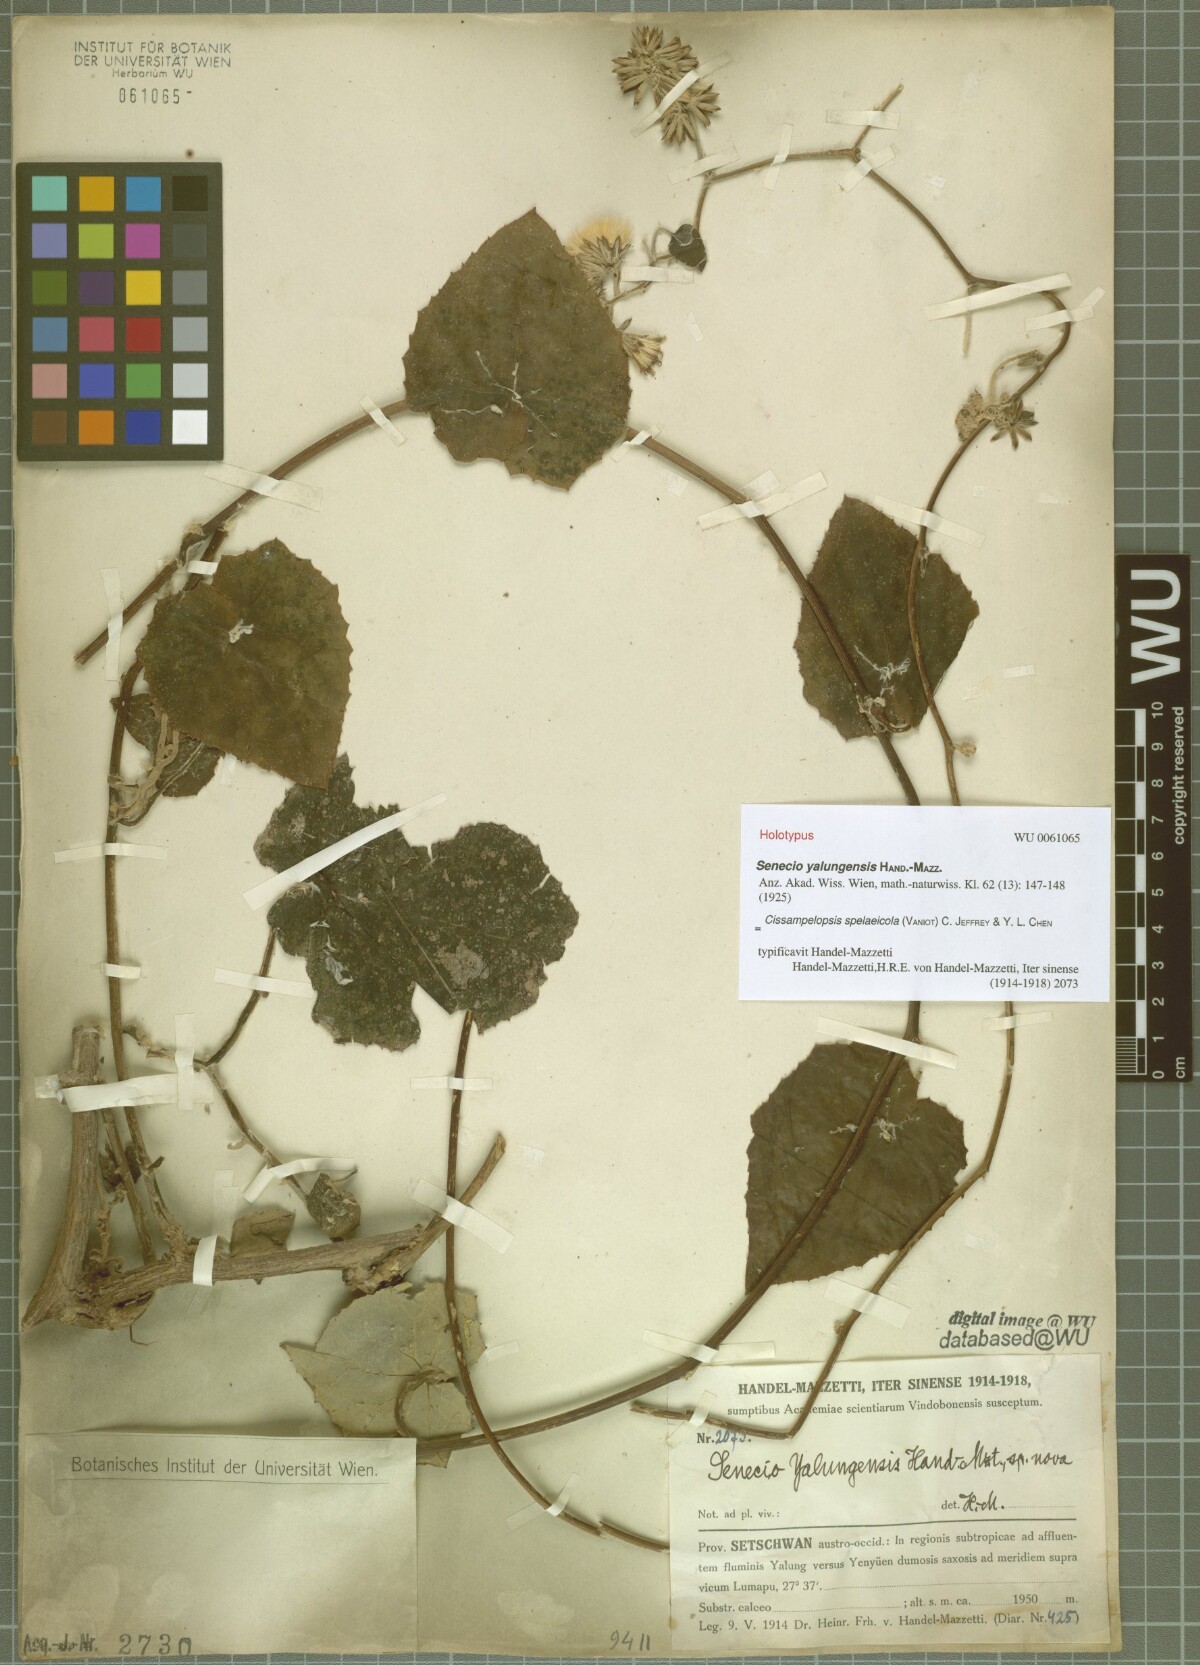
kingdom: Plantae
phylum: Tracheophyta
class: Magnoliopsida
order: Asterales
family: Asteraceae
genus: Cissampelopsis
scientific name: Cissampelopsis spelaeicola
